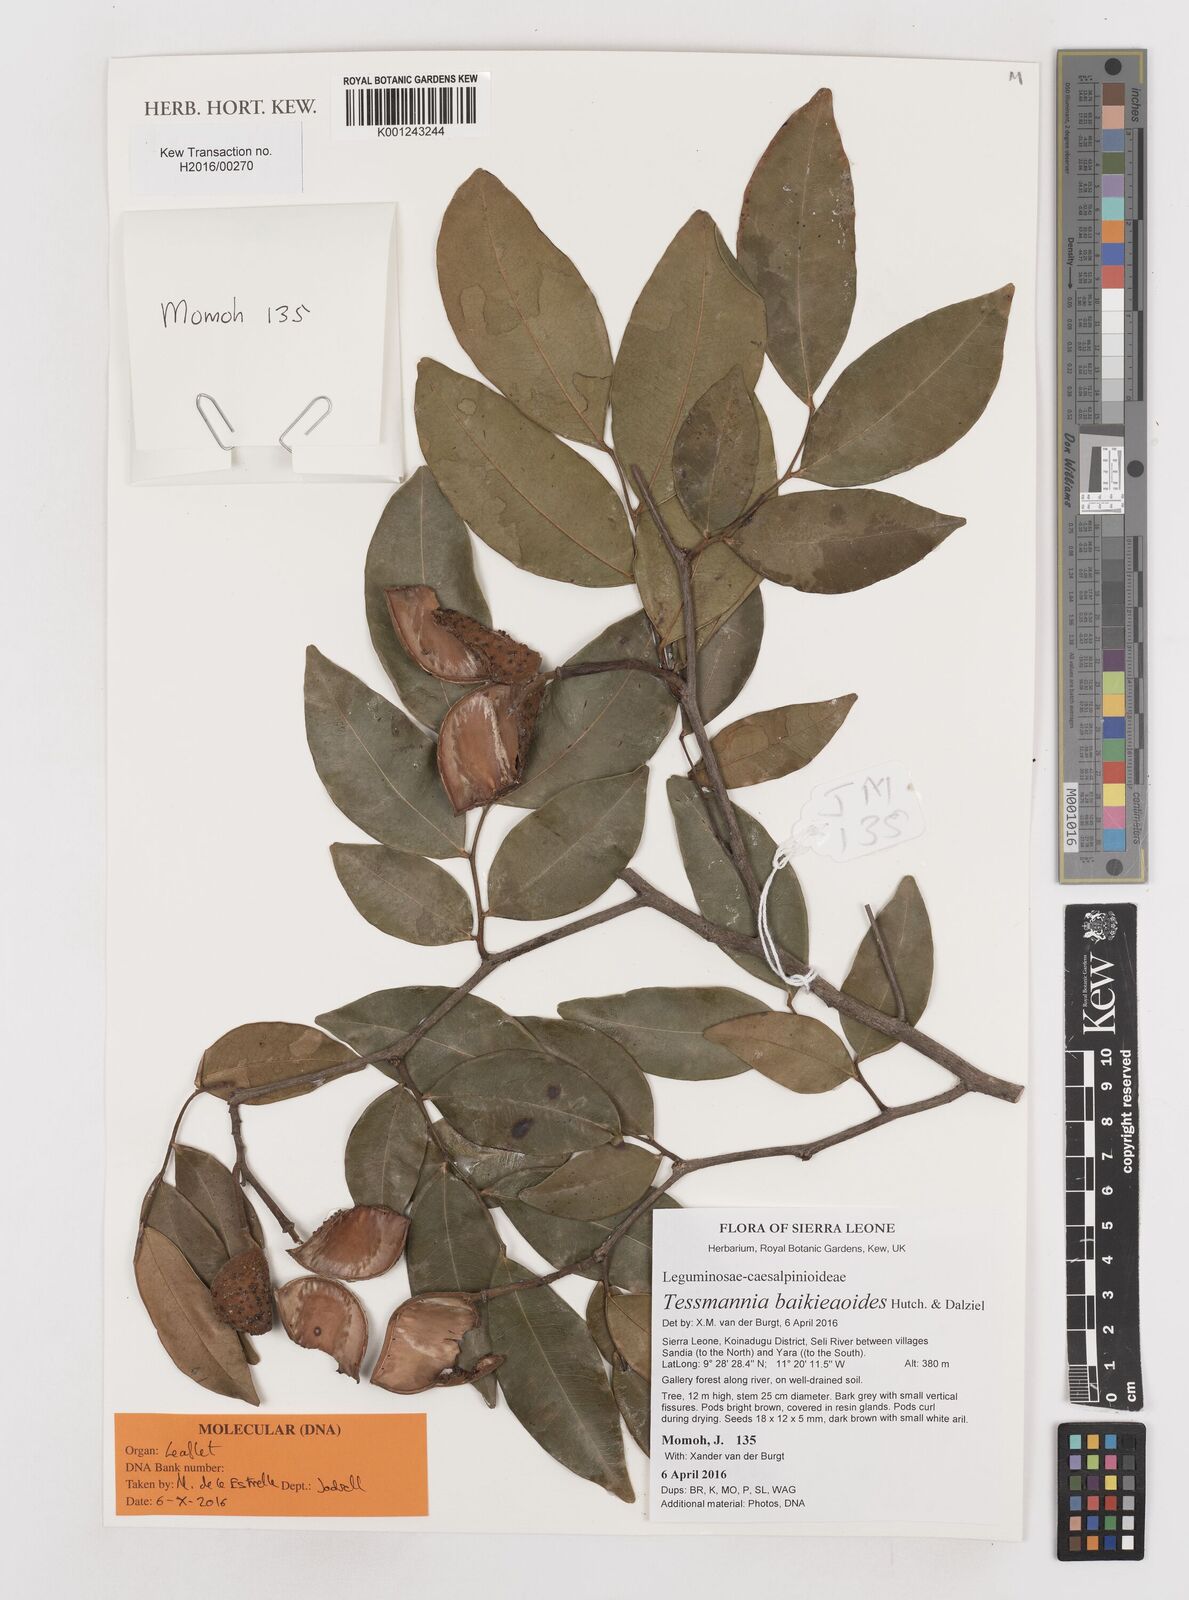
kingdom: Plantae
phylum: Tracheophyta
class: Magnoliopsida
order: Fabales
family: Fabaceae
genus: Tessmannia
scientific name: Tessmannia baikieaoides
